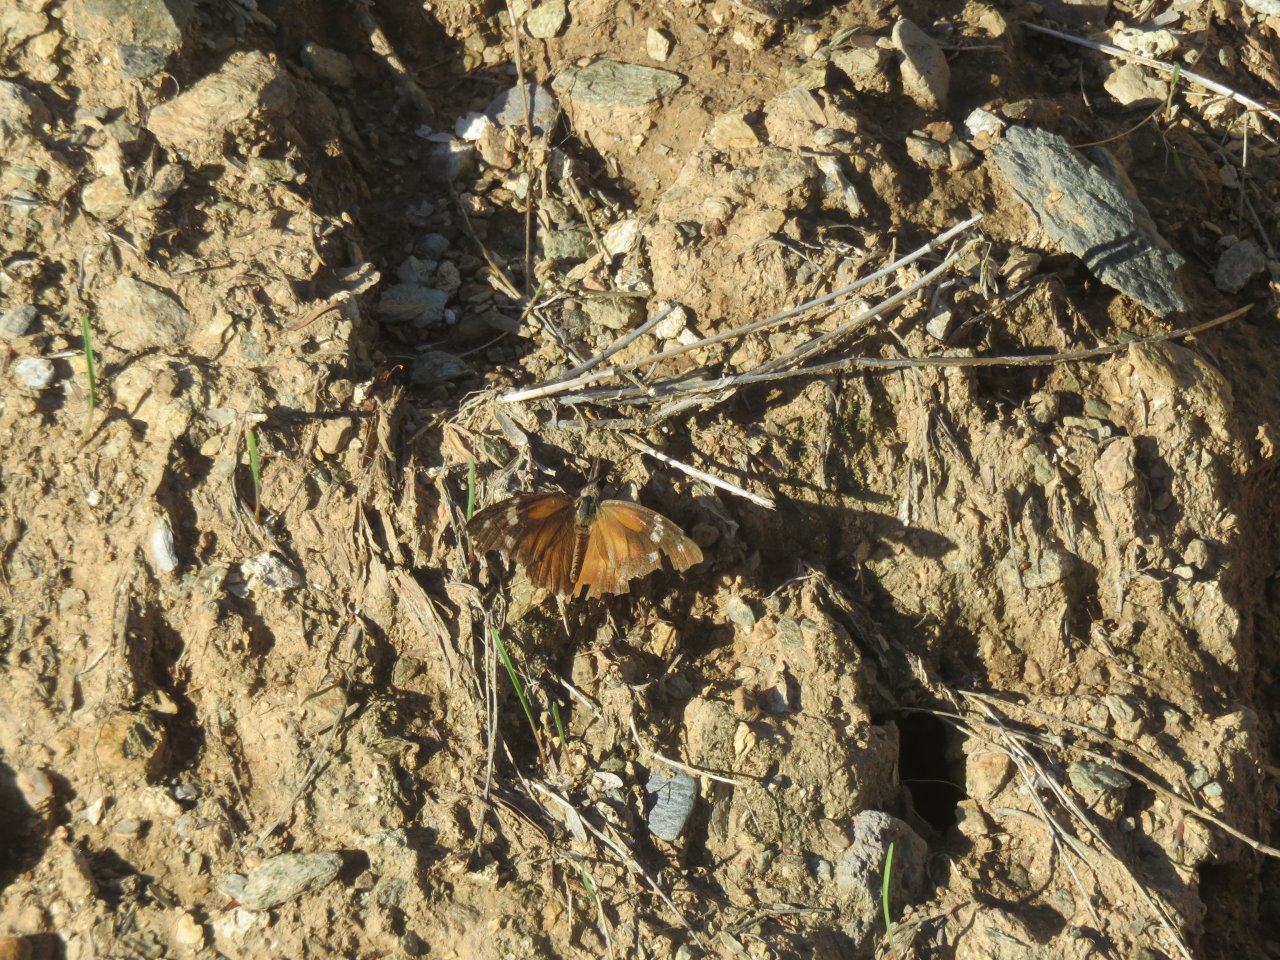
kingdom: Animalia
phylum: Arthropoda
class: Insecta
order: Lepidoptera
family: Nymphalidae
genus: Libytheana
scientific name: Libytheana carinenta
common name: American Snout
